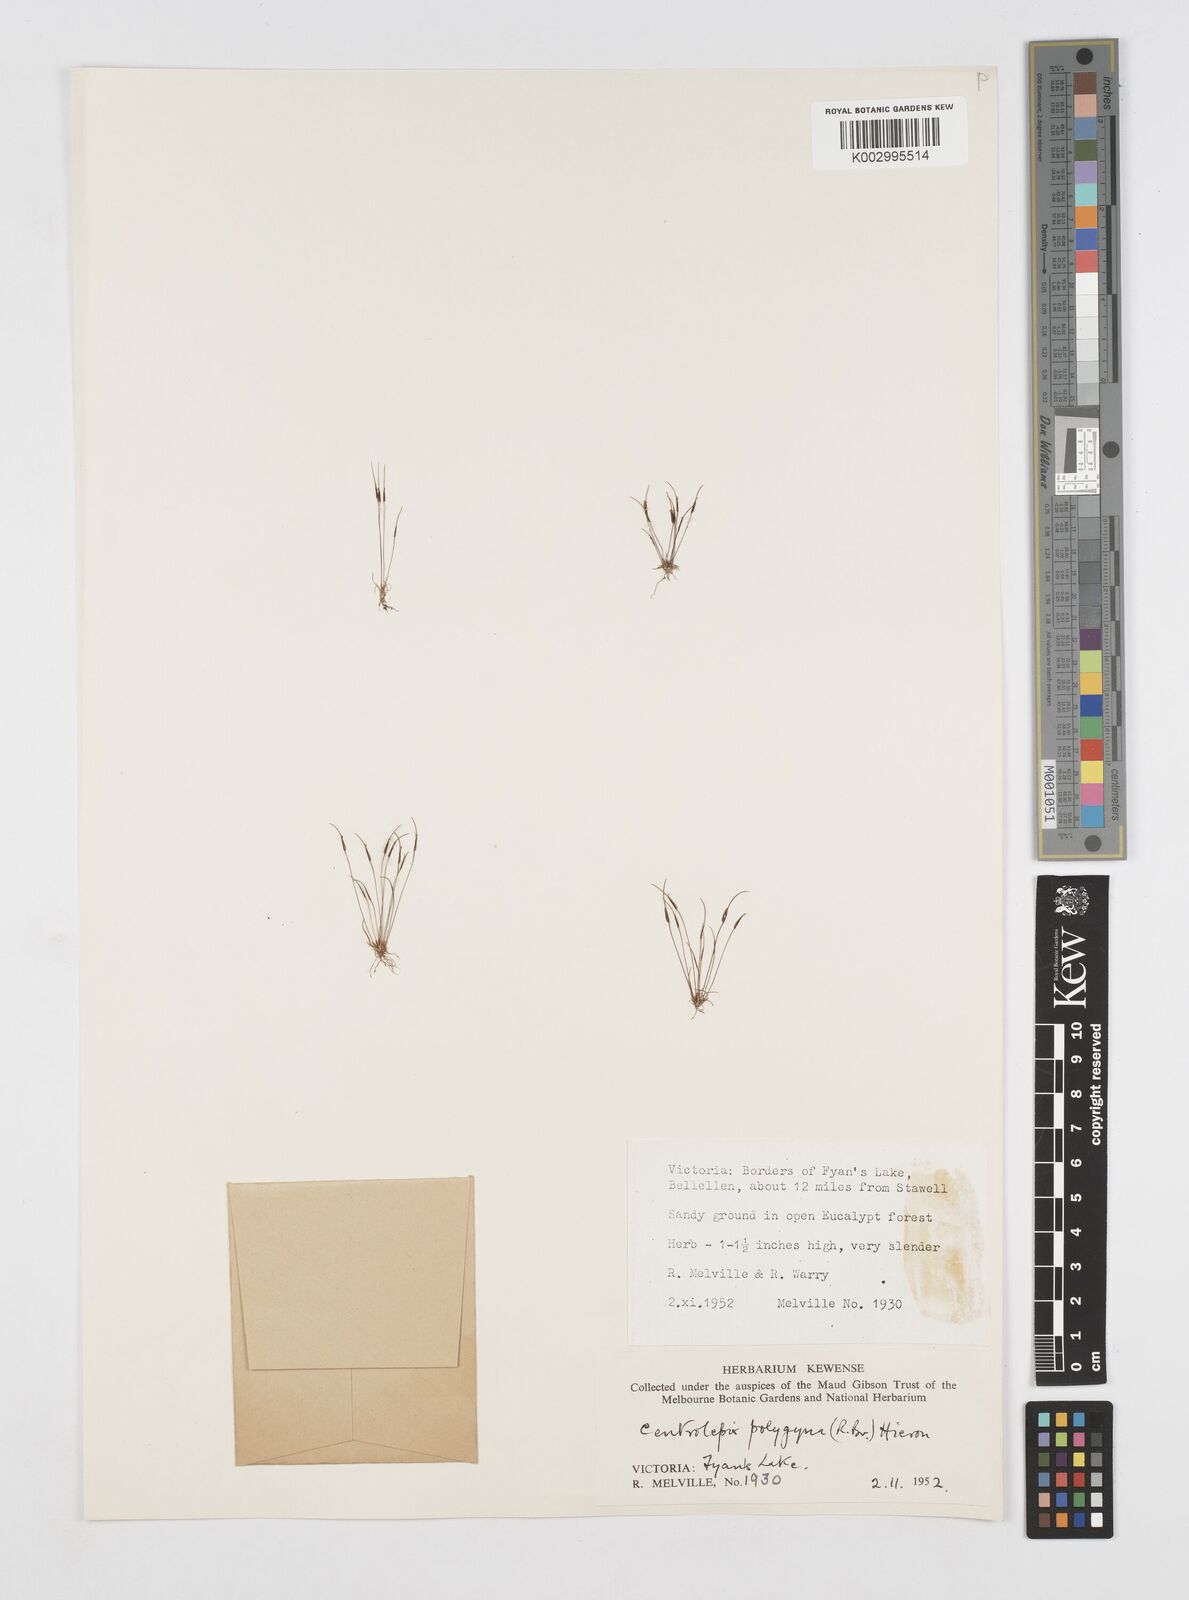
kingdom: Plantae
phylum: Tracheophyta
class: Liliopsida
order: Poales
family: Restionaceae
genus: Centrolepis
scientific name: Centrolepis polygyna
